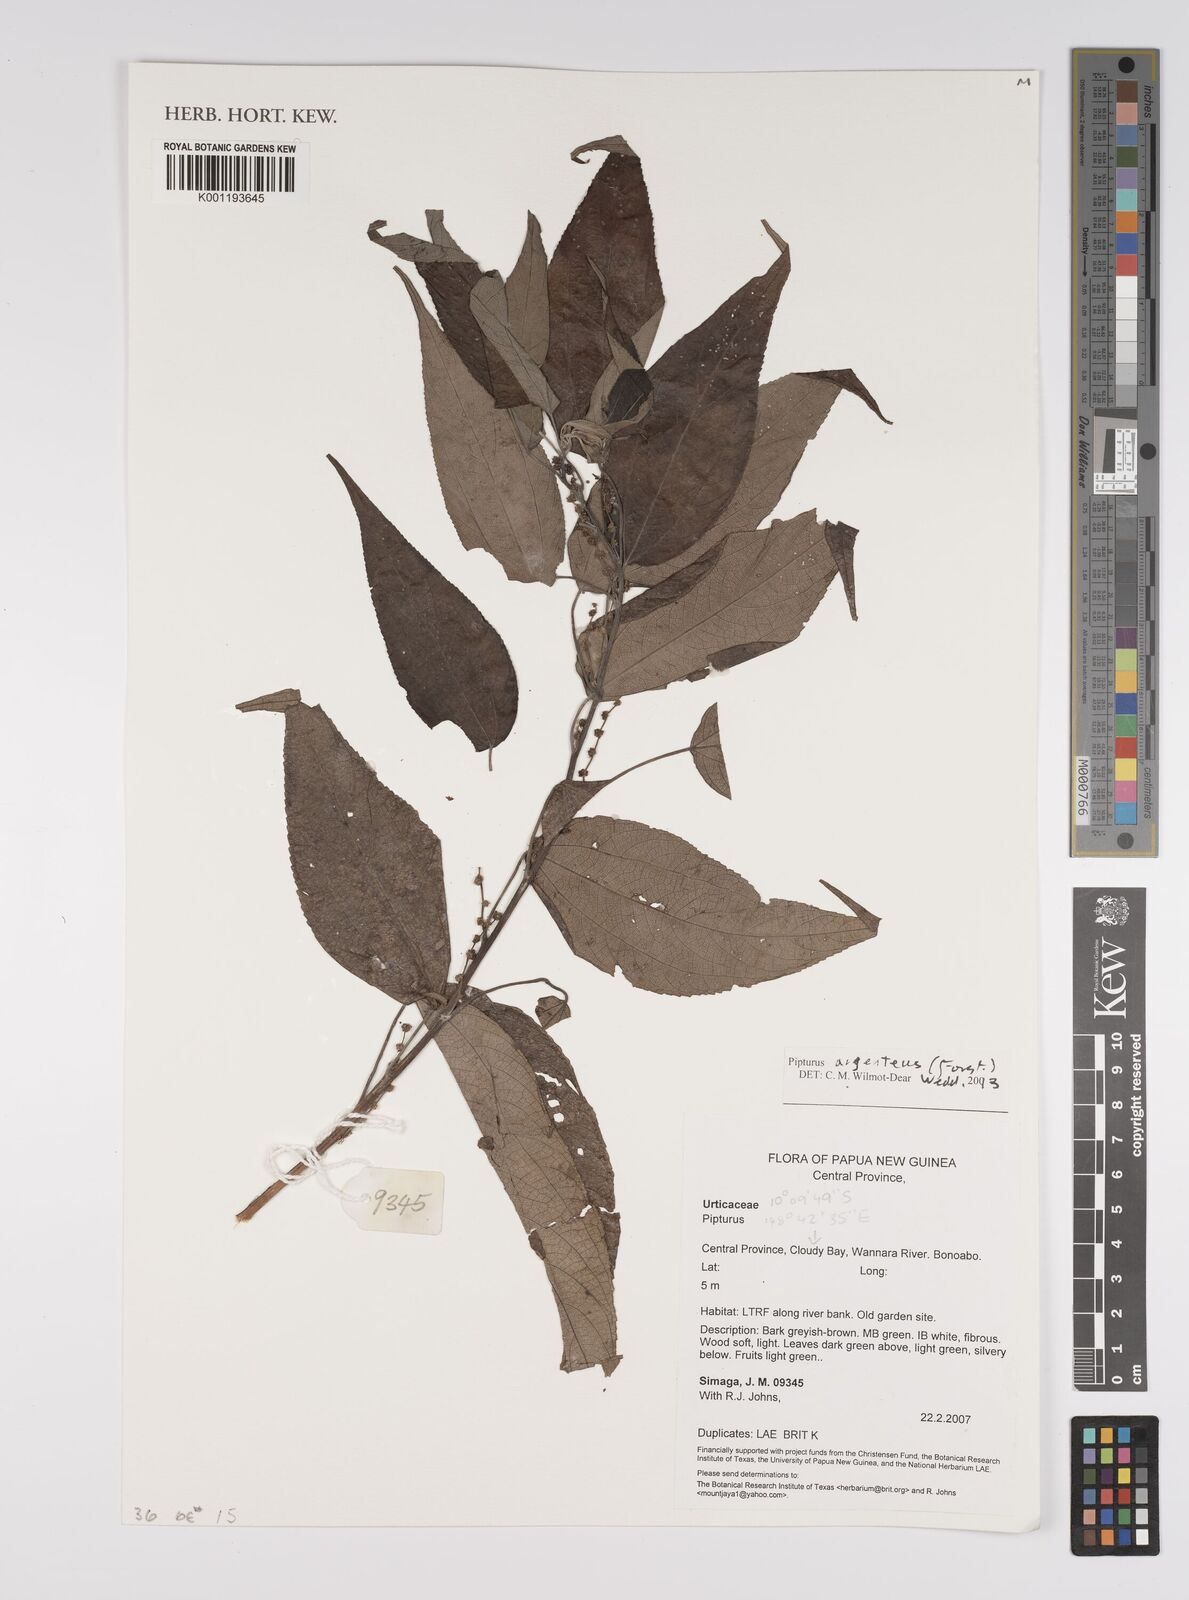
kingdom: Plantae
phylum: Tracheophyta
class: Magnoliopsida
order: Rosales
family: Urticaceae
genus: Pipturus
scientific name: Pipturus argenteus
